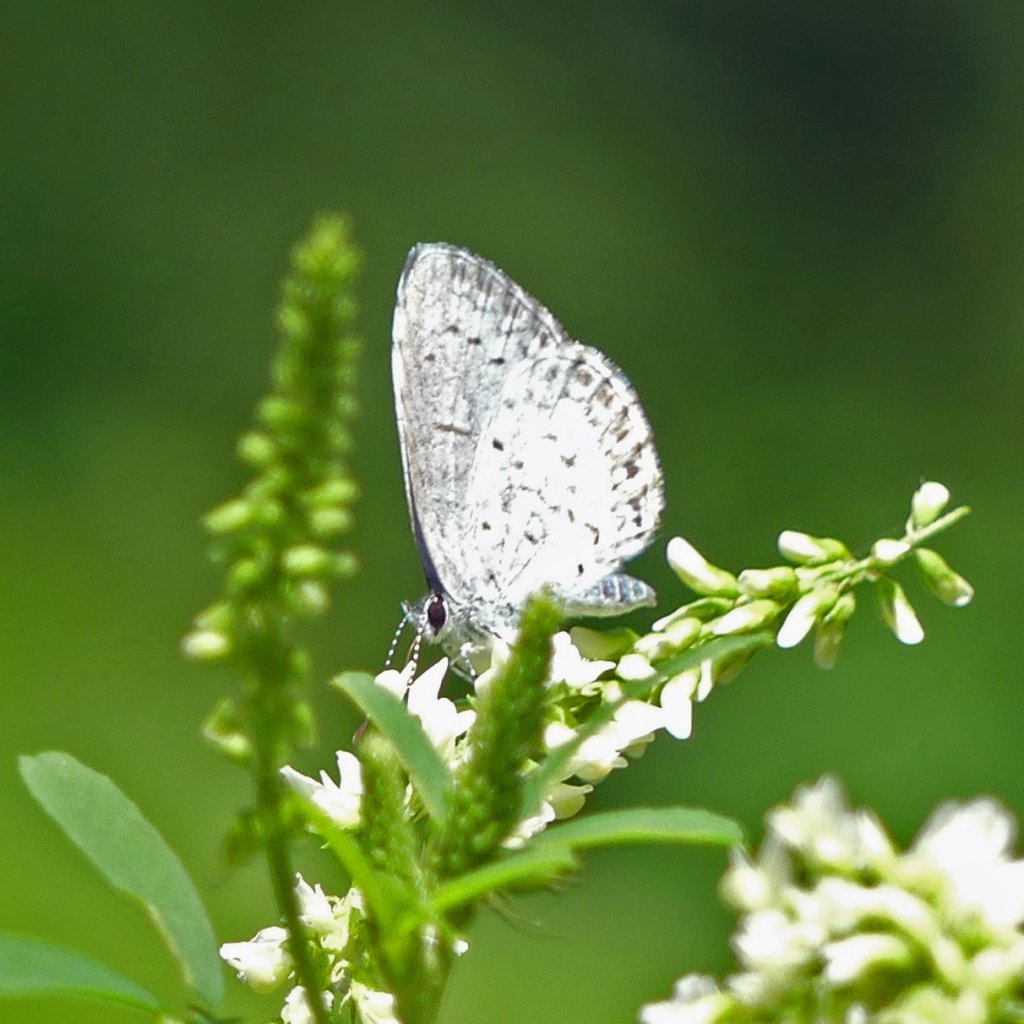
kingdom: Animalia
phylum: Arthropoda
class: Insecta
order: Lepidoptera
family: Lycaenidae
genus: Celastrina
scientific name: Celastrina
